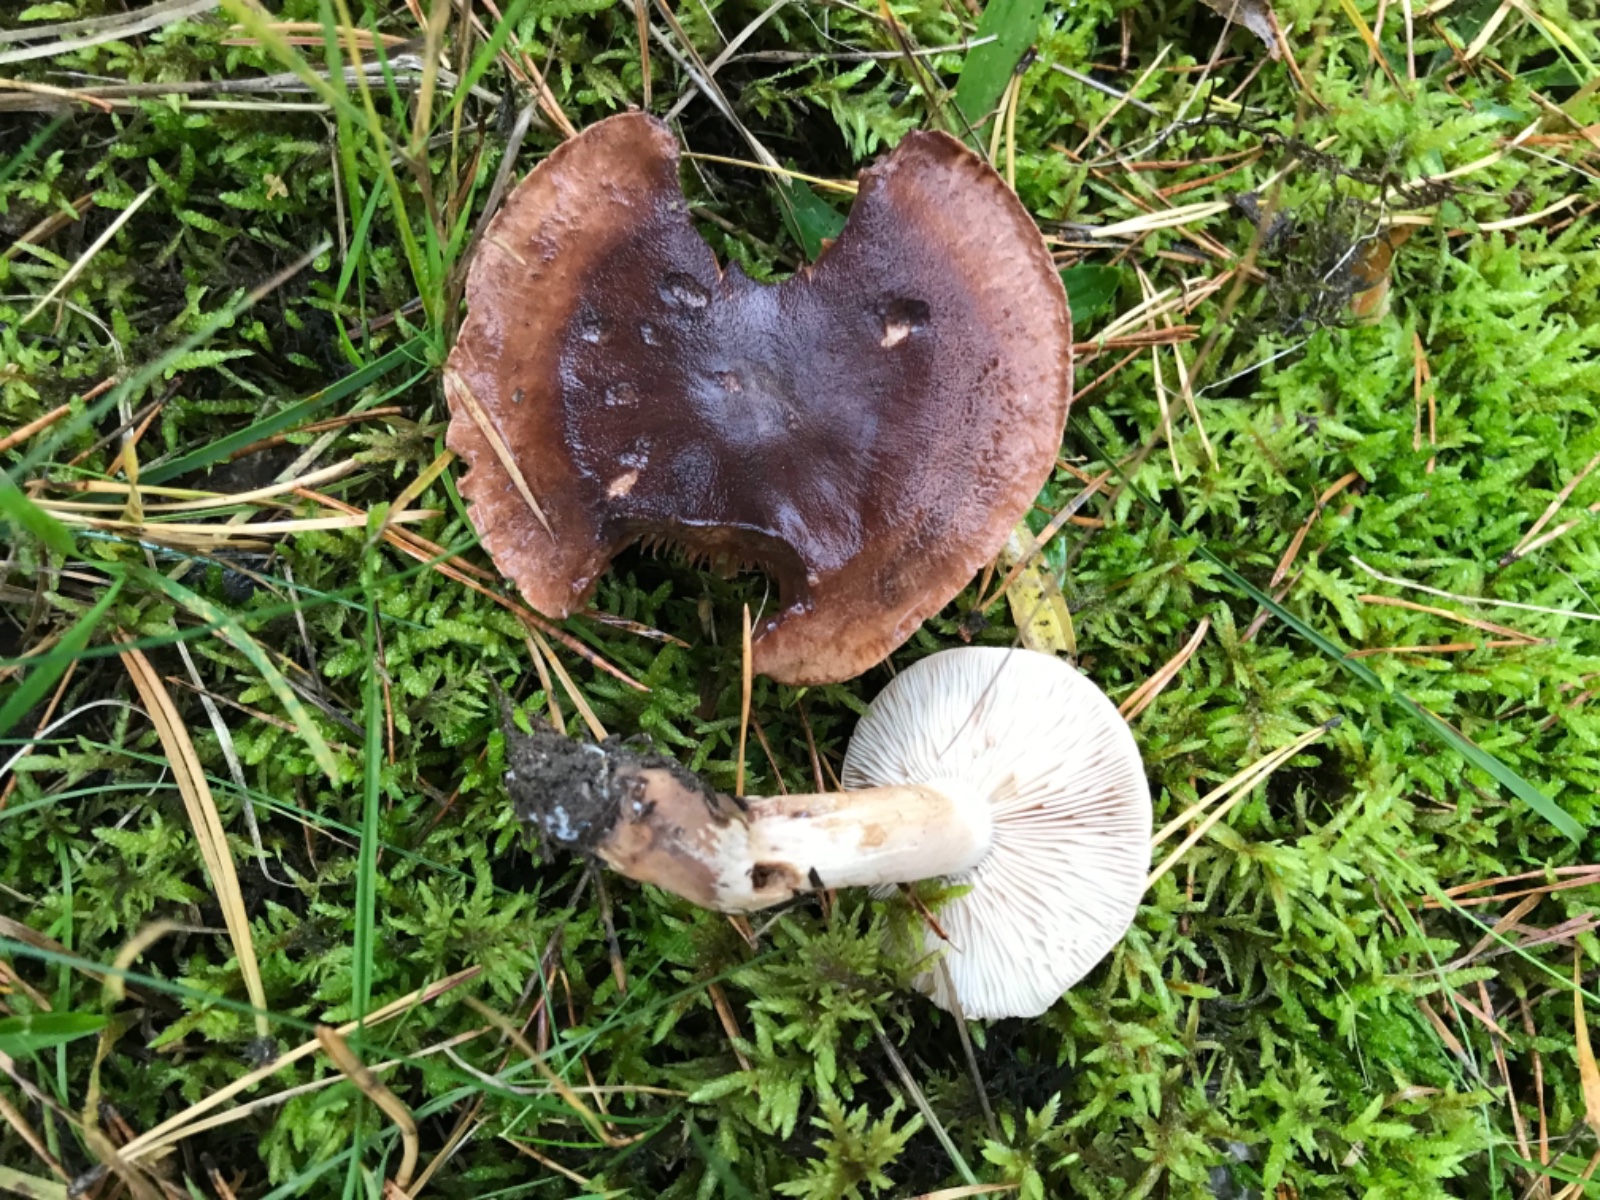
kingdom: Fungi
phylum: Basidiomycota
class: Agaricomycetes
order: Agaricales
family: Tricholomataceae
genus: Tricholoma
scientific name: Tricholoma albobrunneum
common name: kastanie-ridderhat
